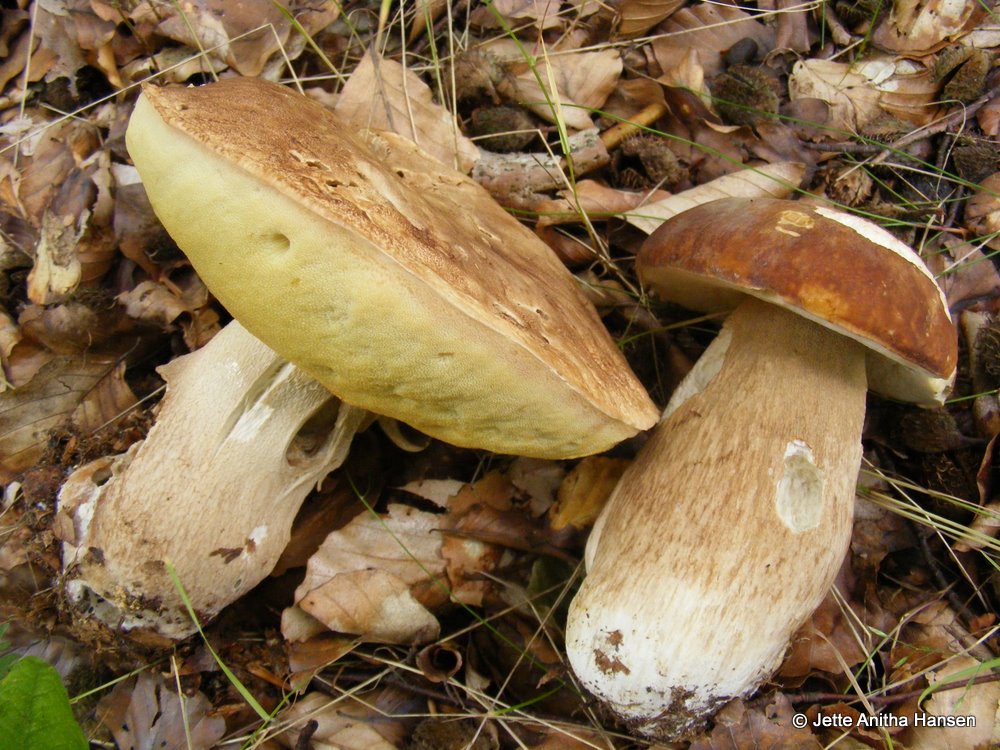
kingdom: Fungi
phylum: Basidiomycota
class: Agaricomycetes
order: Boletales
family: Boletaceae
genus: Boletus
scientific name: Boletus reticulatus
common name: sommer-rørhat
